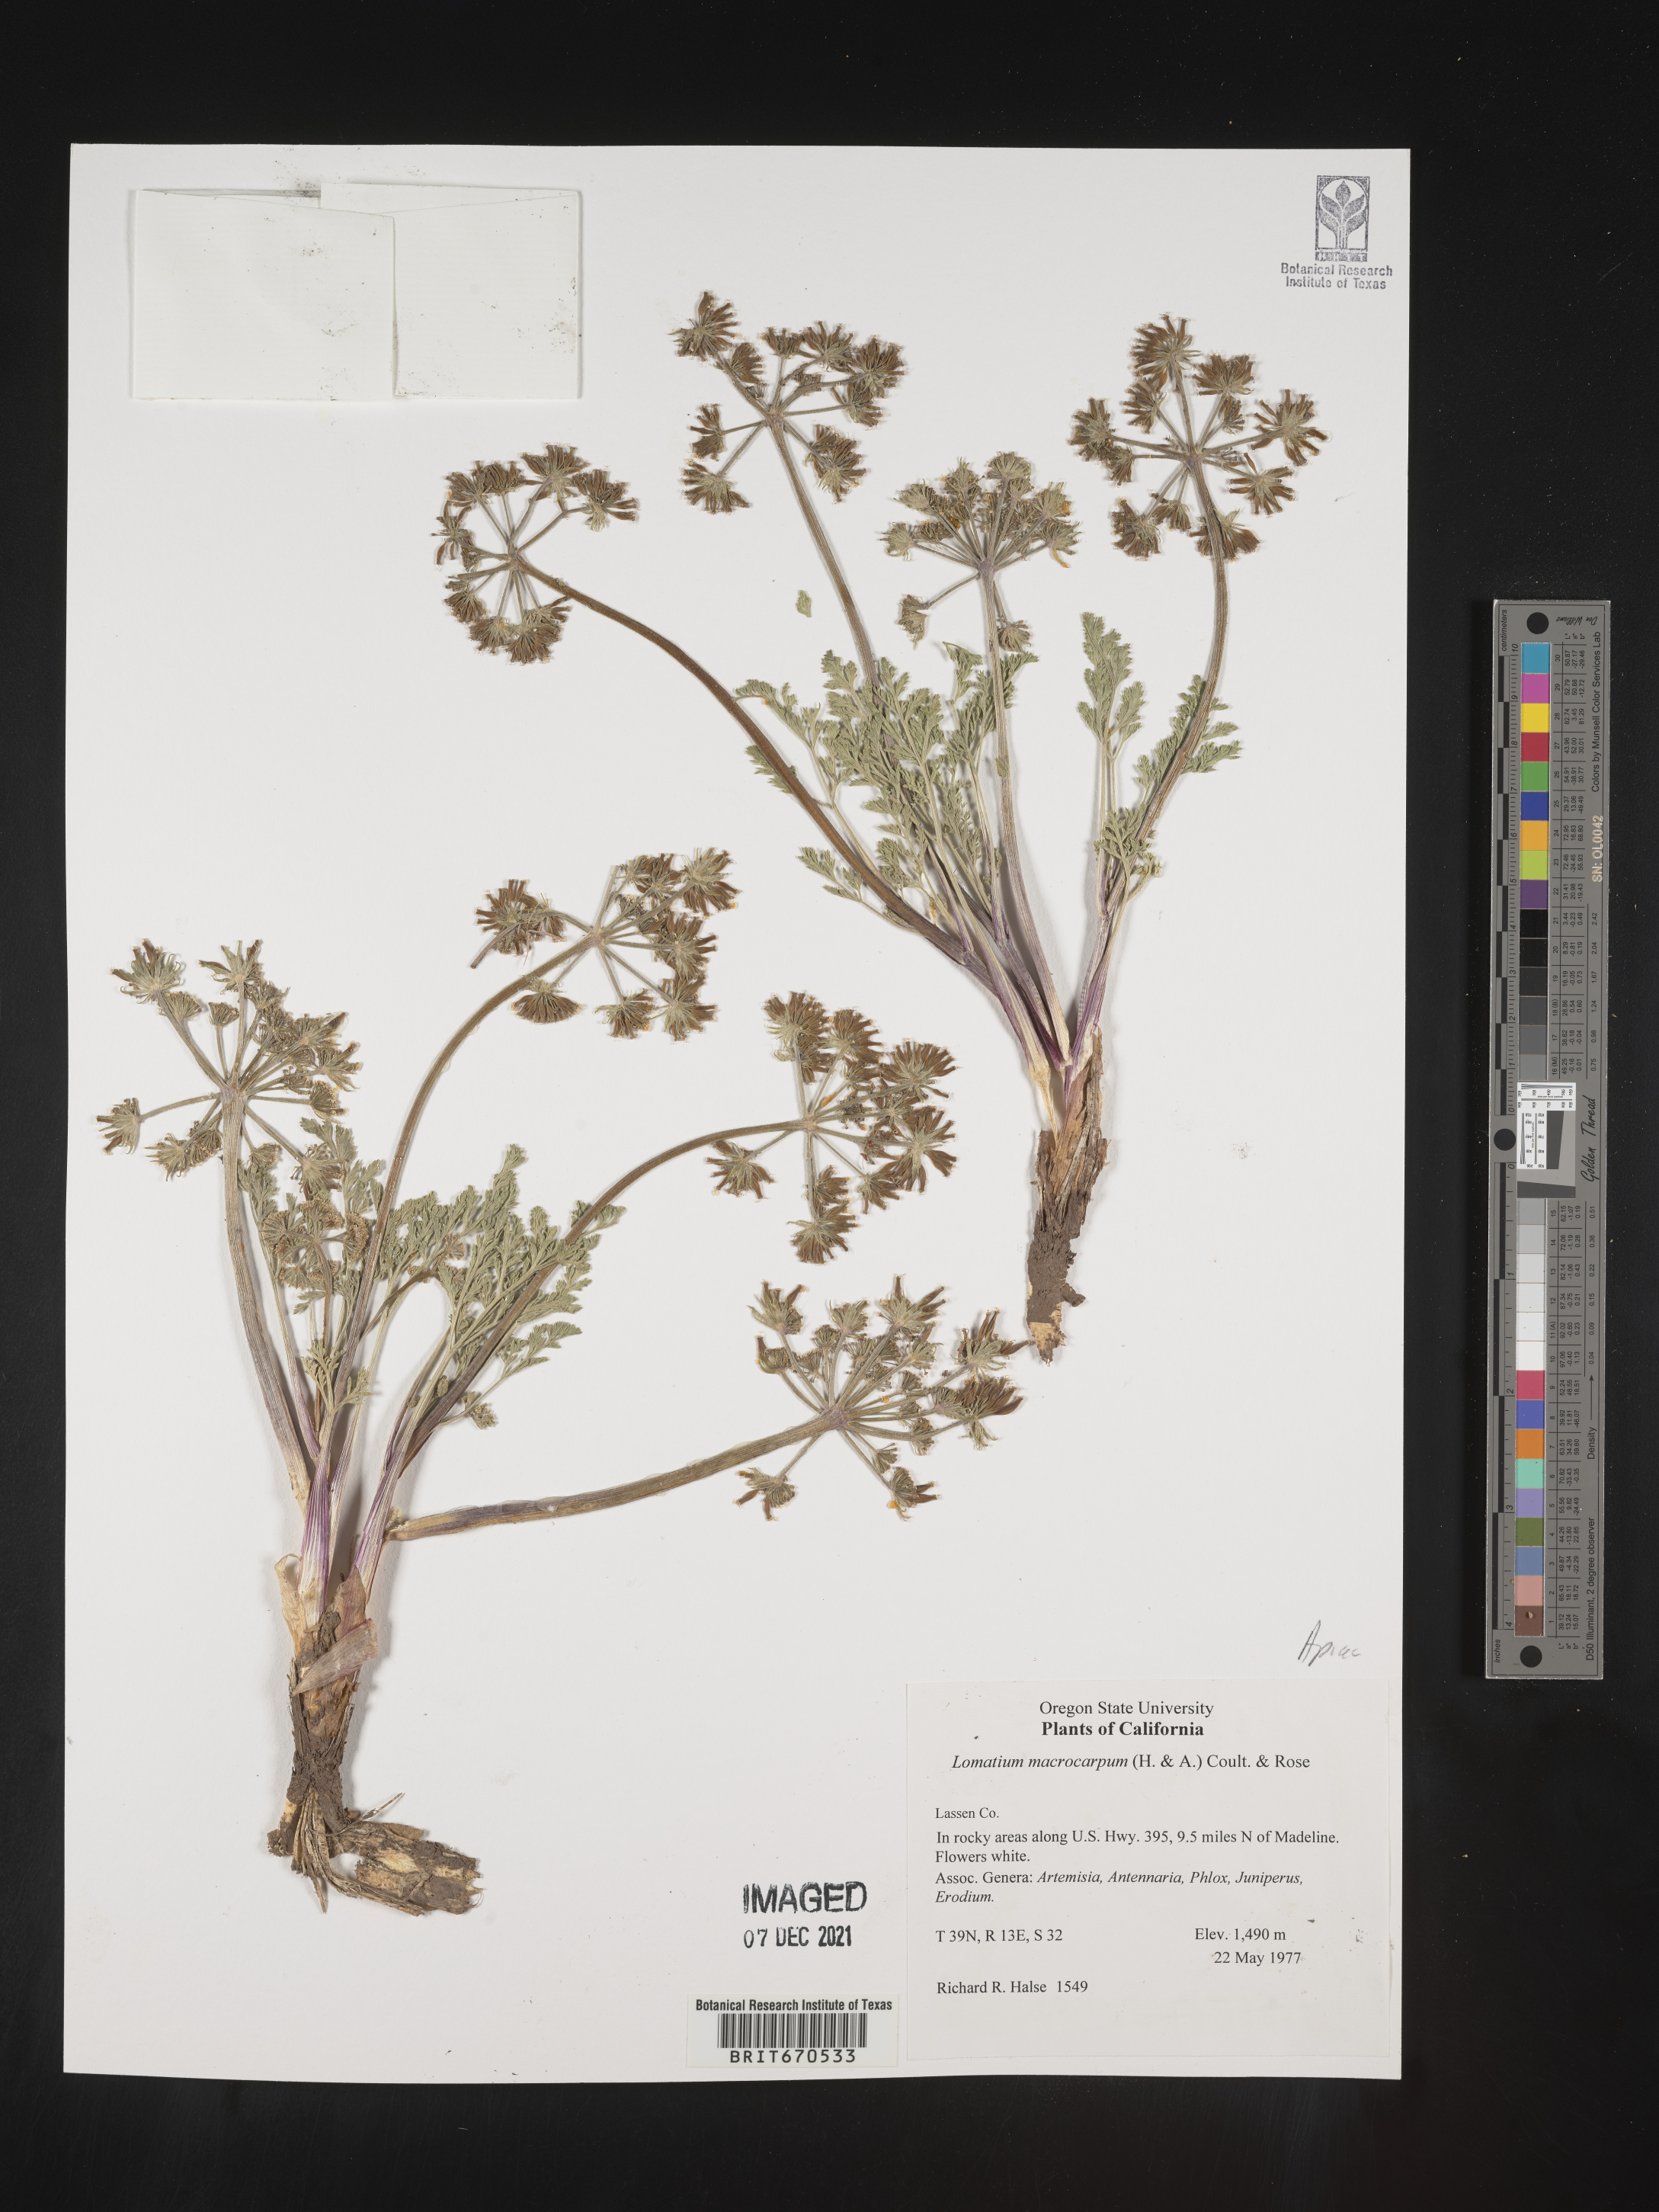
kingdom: Plantae
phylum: Tracheophyta
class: Magnoliopsida
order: Apiales
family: Apiaceae
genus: Lomatium
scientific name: Lomatium macrocarpum
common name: Big-seed biscuitroot
